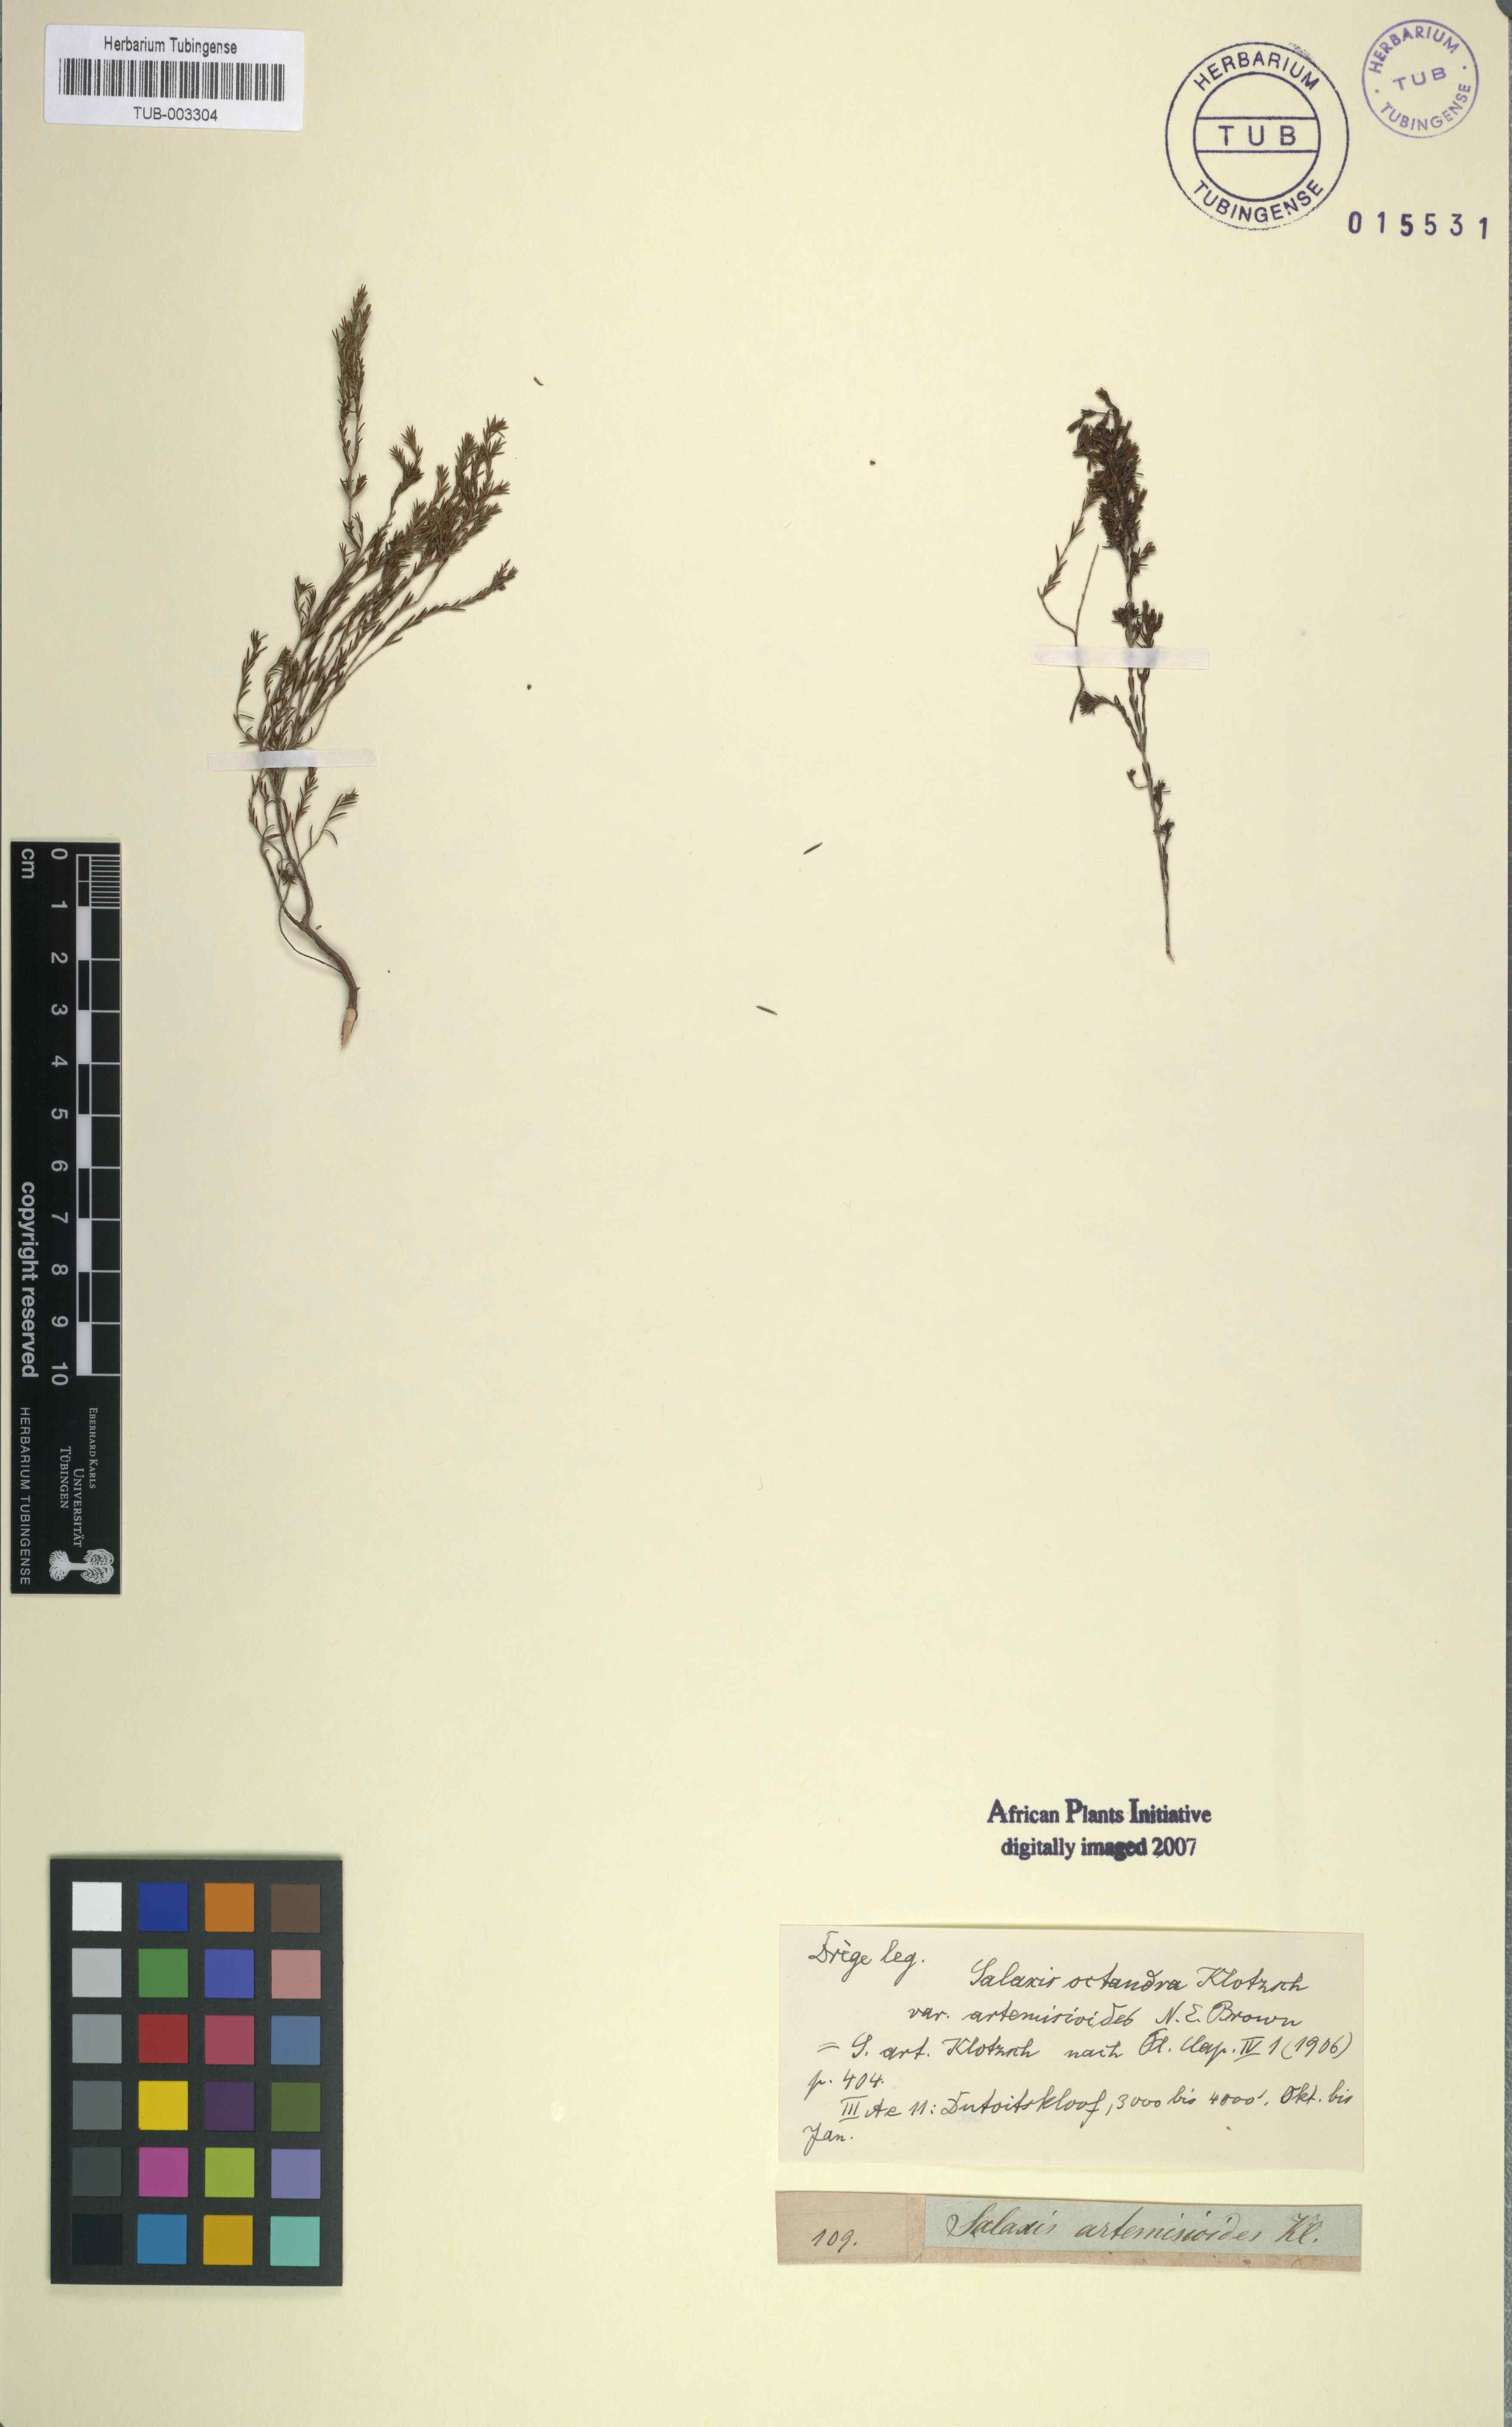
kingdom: Plantae
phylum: Tracheophyta
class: Magnoliopsida
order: Ericales
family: Ericaceae
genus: Erica
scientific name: Erica artemisioides
